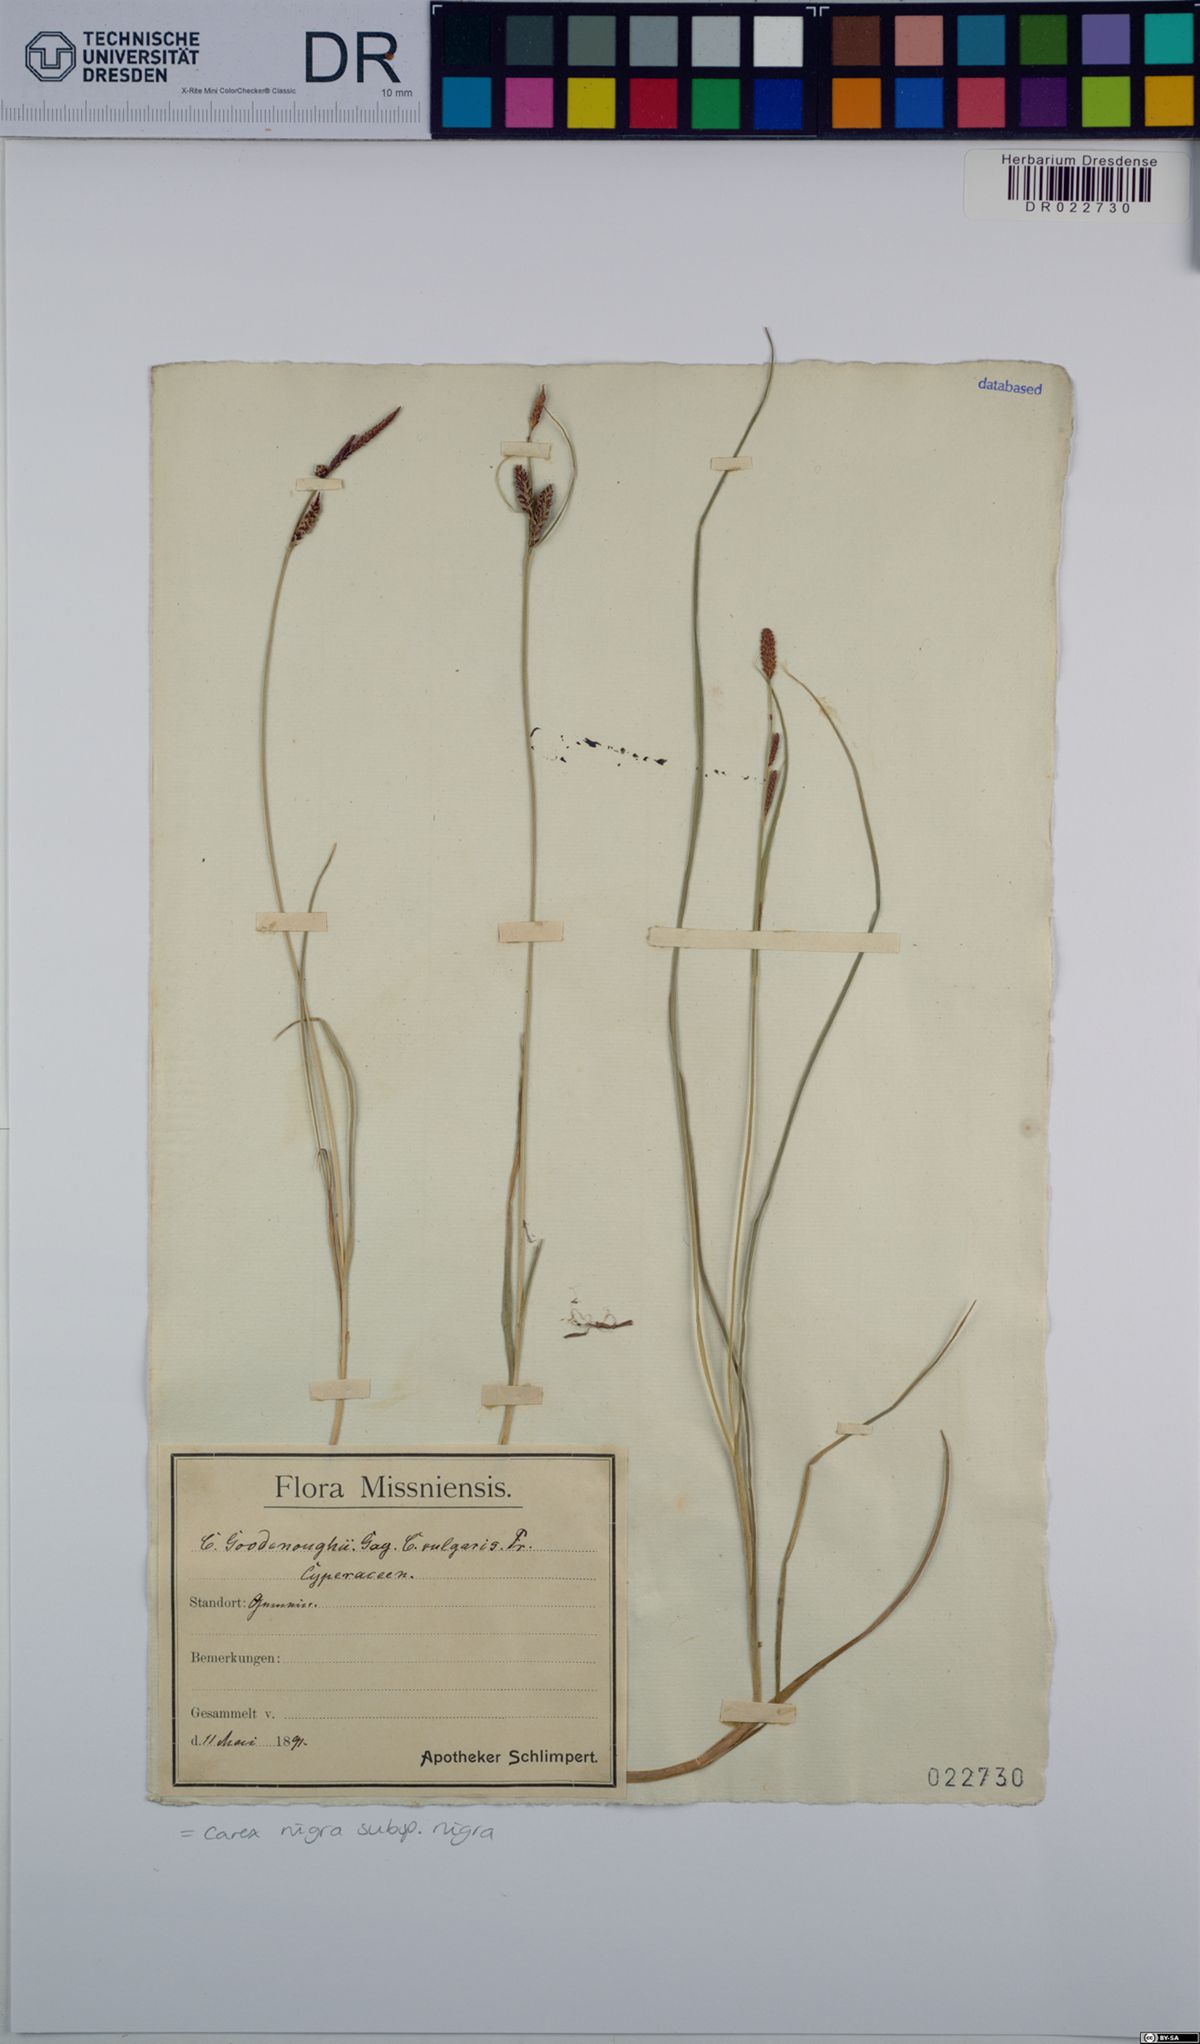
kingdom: Plantae
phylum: Tracheophyta
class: Liliopsida
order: Poales
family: Cyperaceae
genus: Carex
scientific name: Carex nigra
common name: Common sedge
